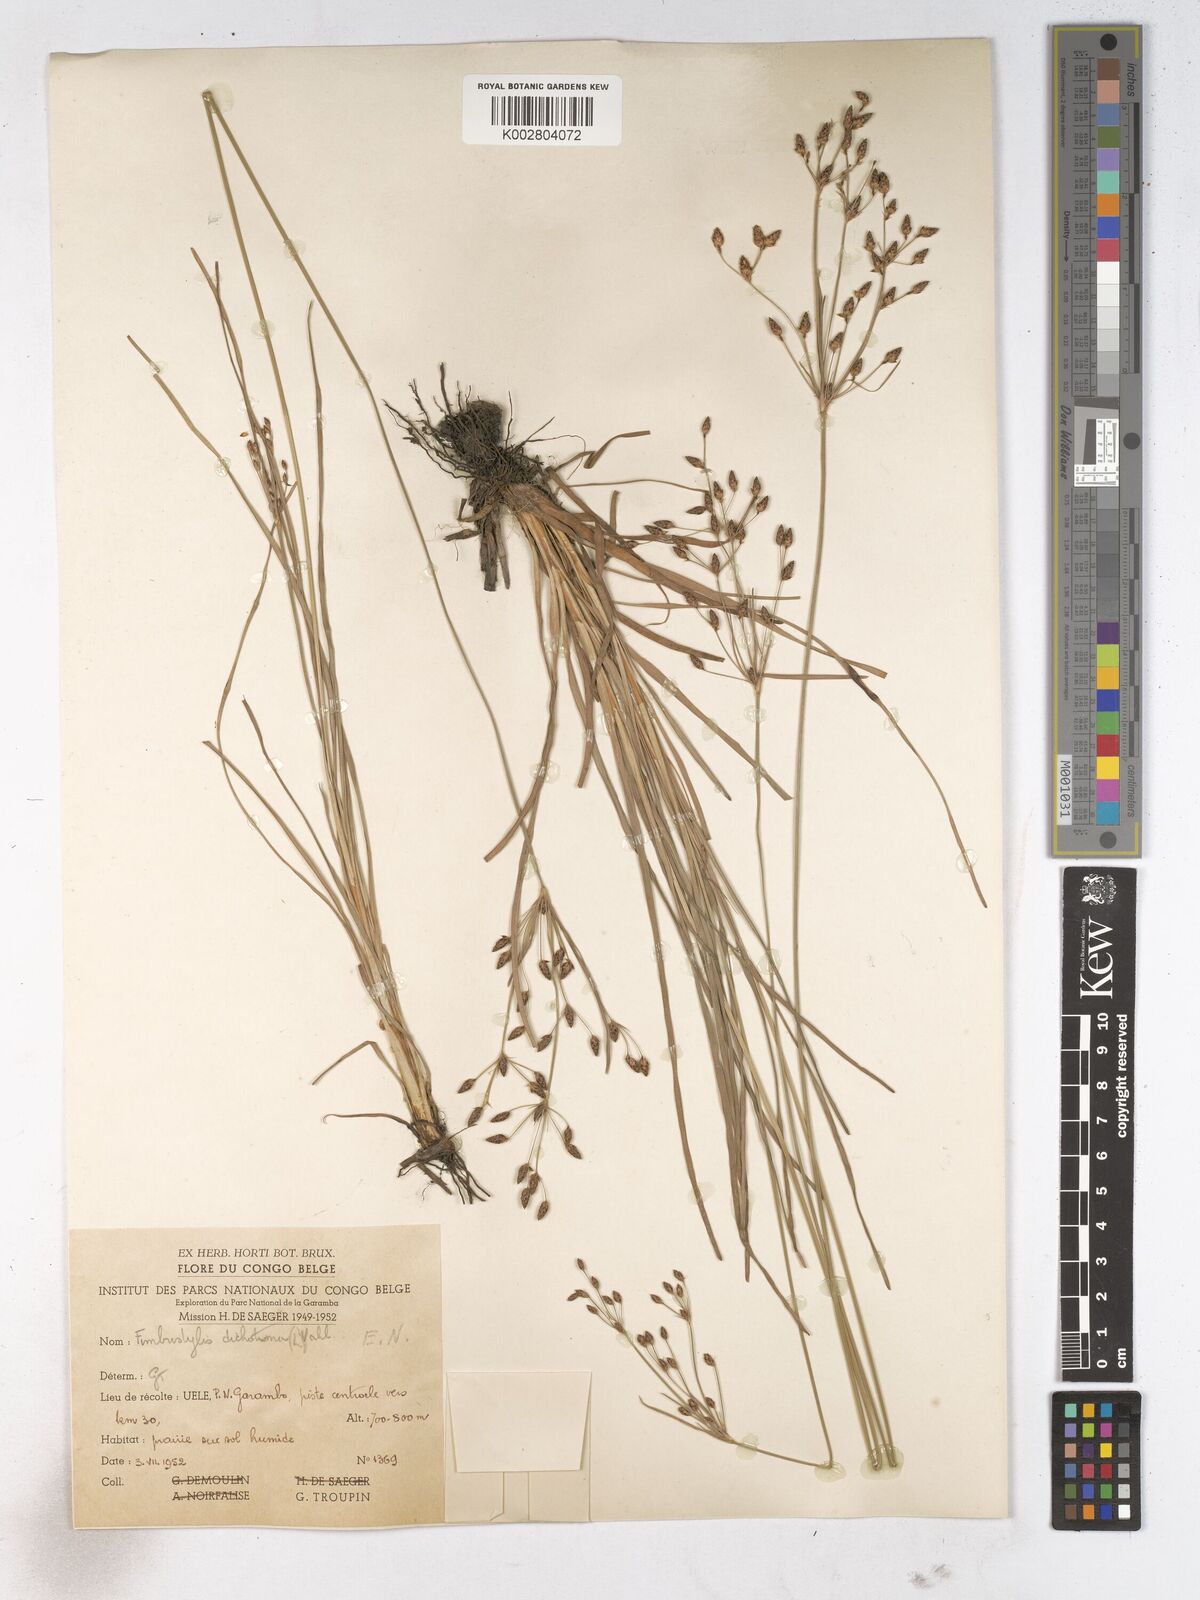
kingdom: Plantae
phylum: Tracheophyta
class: Liliopsida
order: Poales
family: Cyperaceae
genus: Fimbristylis
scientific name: Fimbristylis dichotoma
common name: Forked fimbry
